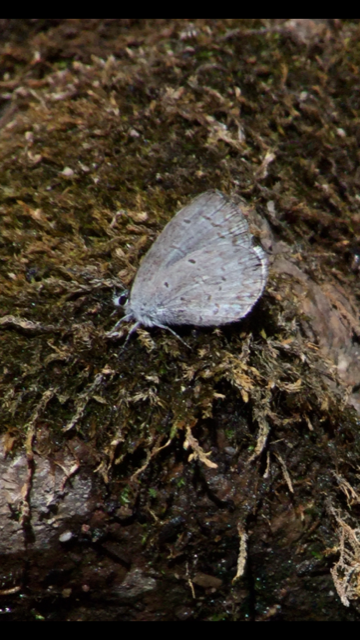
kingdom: Animalia
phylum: Arthropoda
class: Insecta
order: Lepidoptera
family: Lycaenidae
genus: Cyaniris
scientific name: Cyaniris neglecta
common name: Summer Azure
